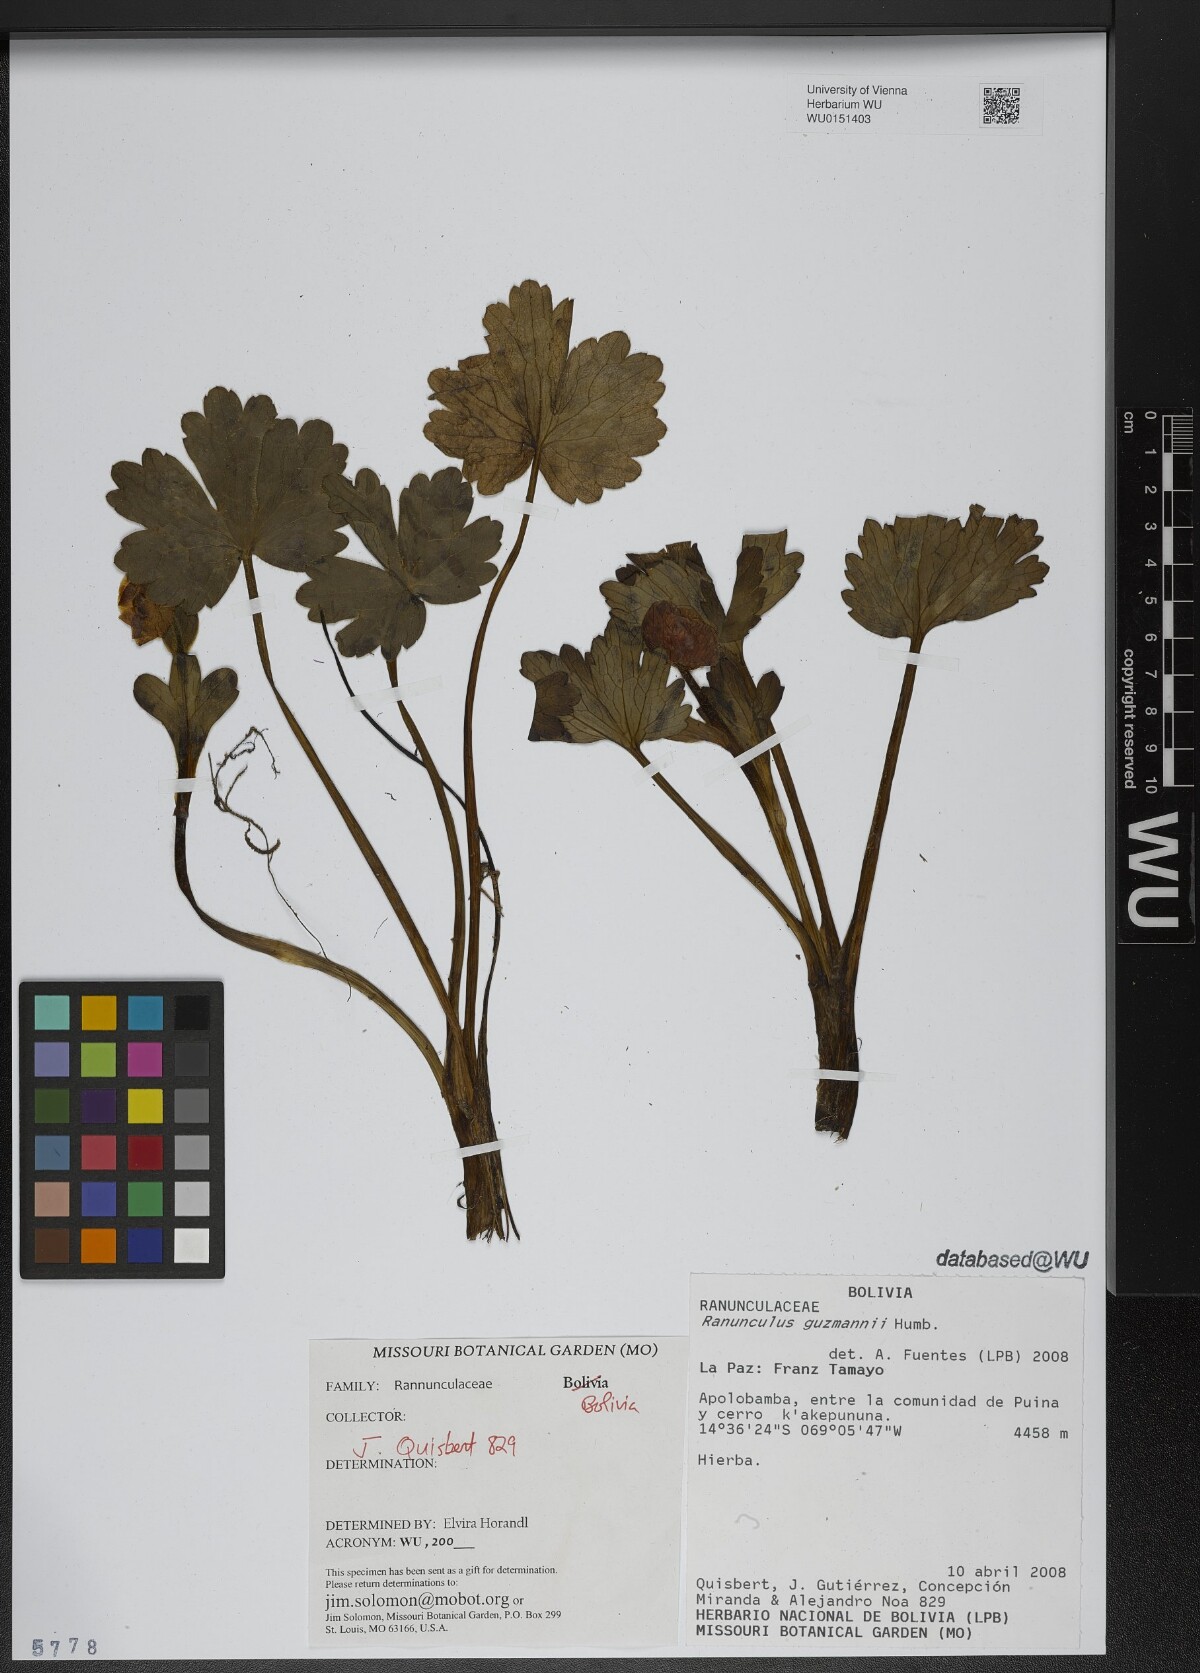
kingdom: Plantae
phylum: Tracheophyta
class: Magnoliopsida
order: Ranunculales
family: Ranunculaceae
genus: Krapfia
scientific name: Krapfia ranunculina
